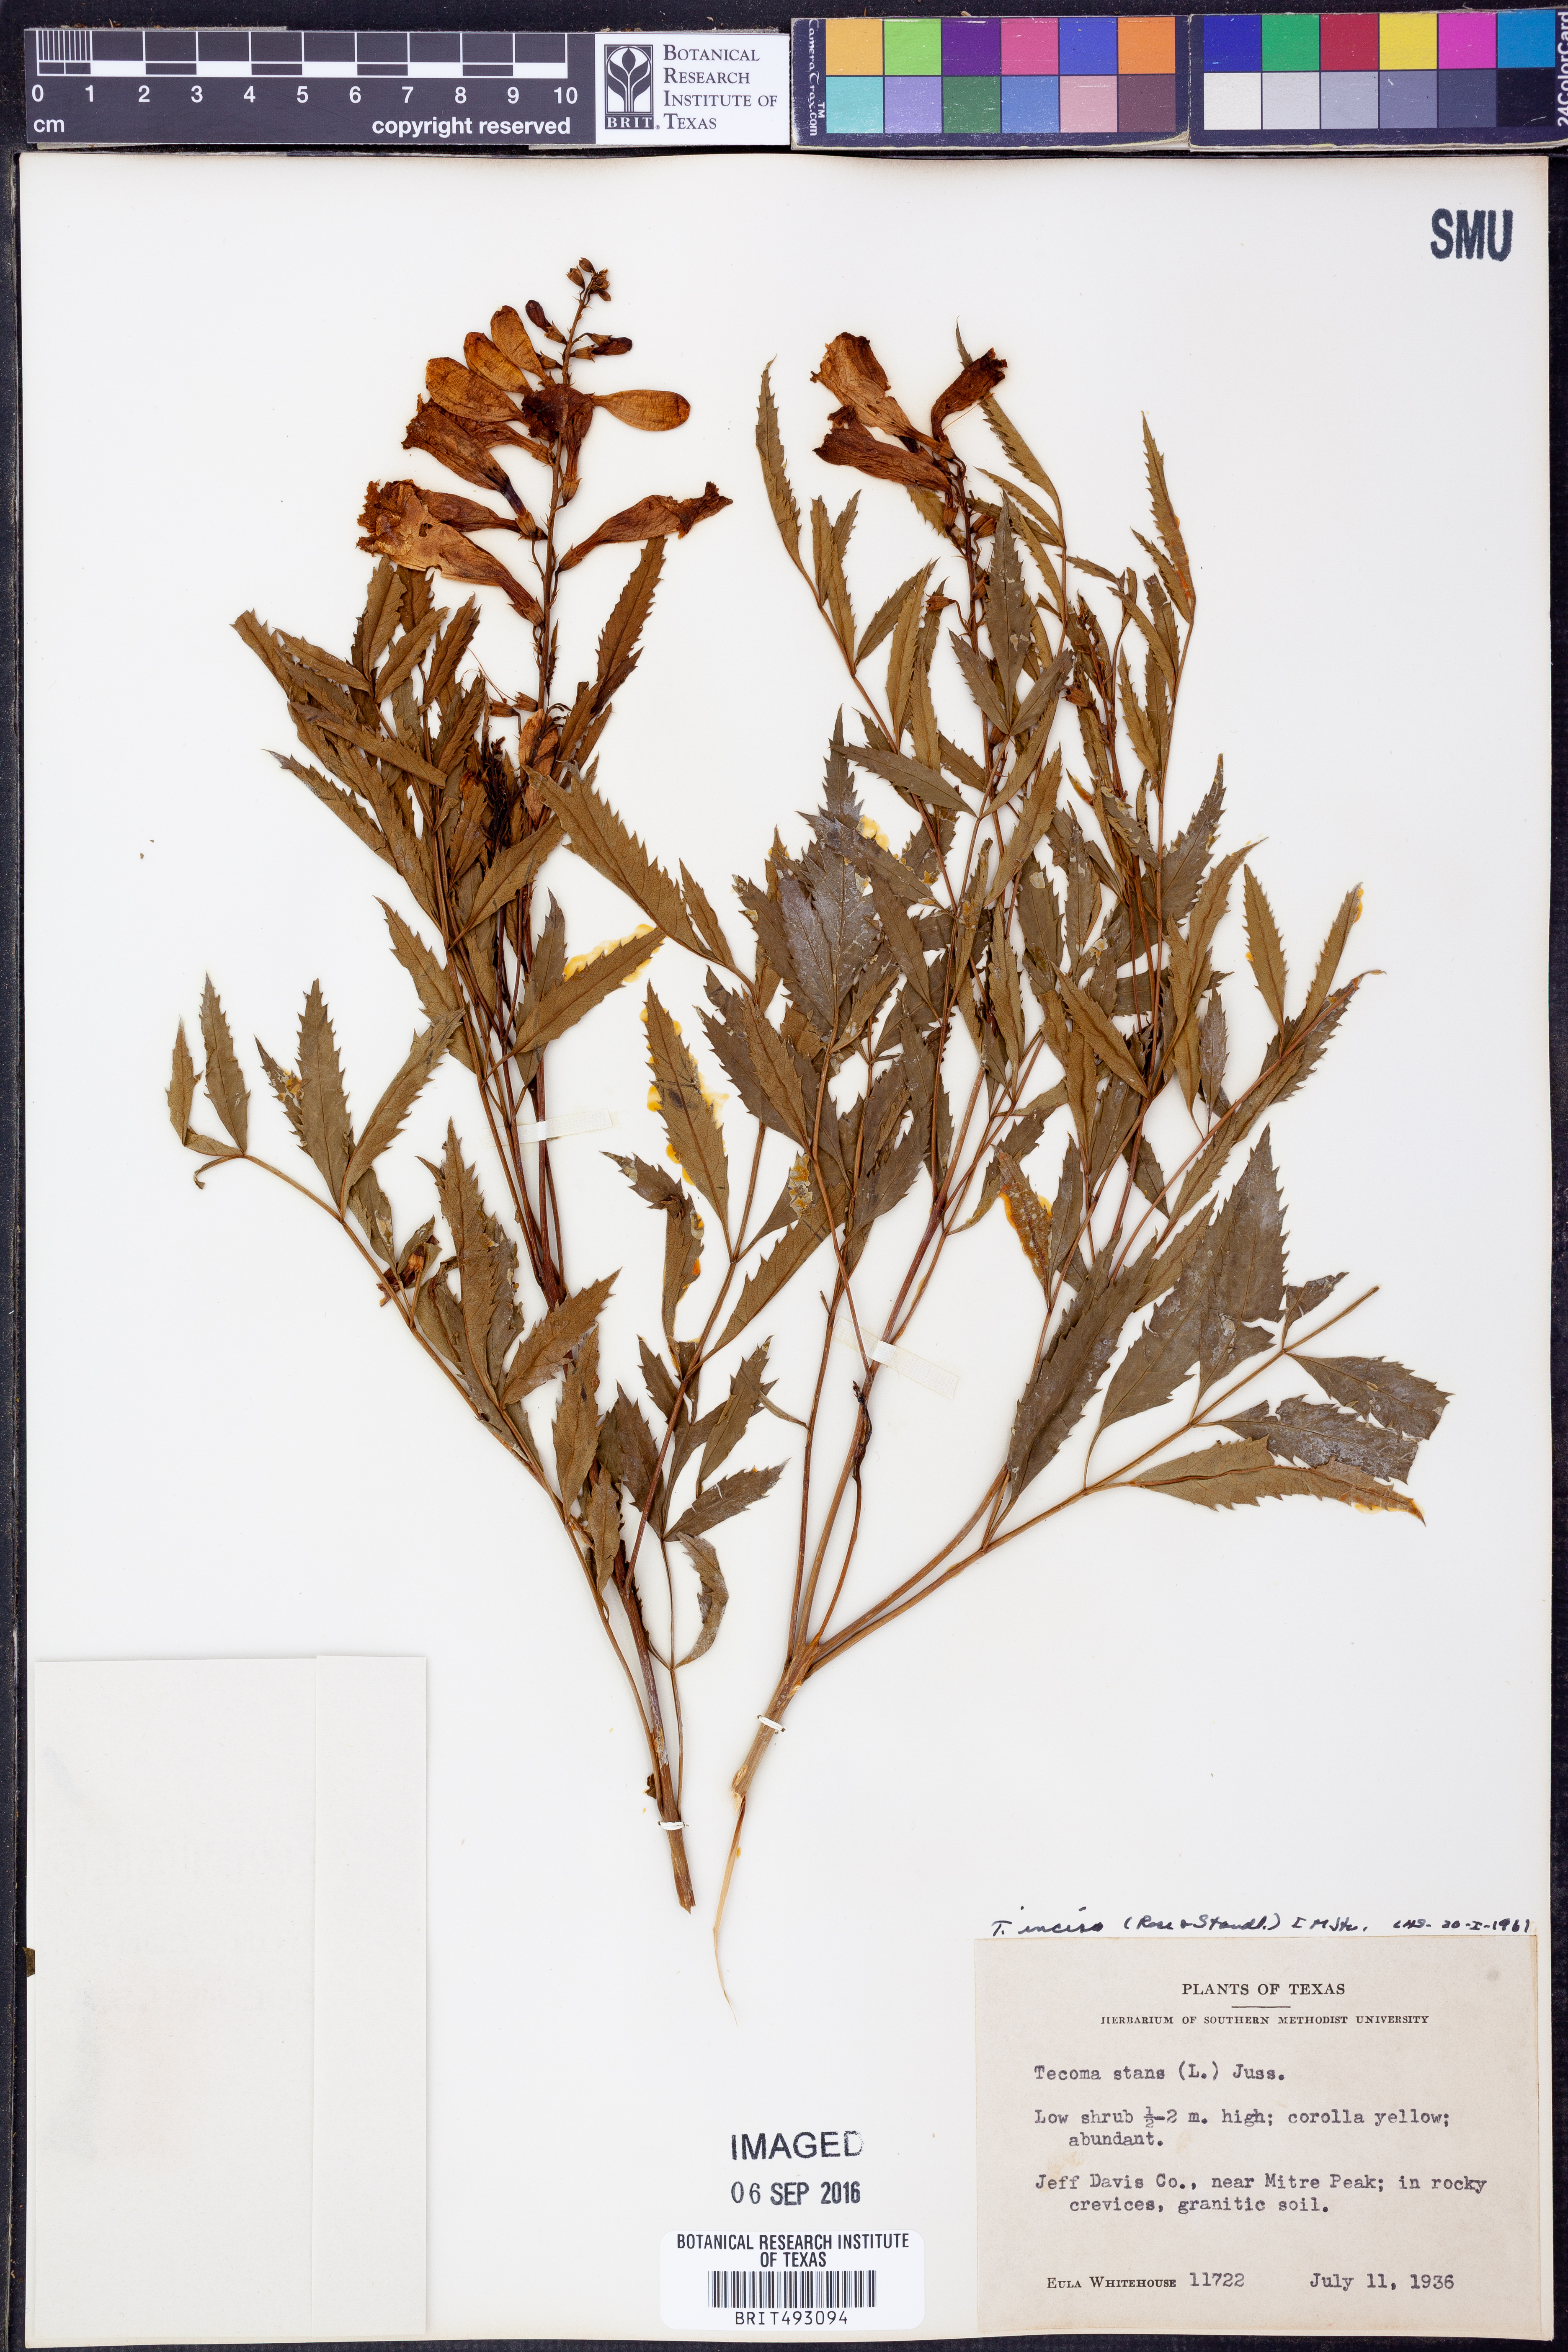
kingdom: Plantae
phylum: Tracheophyta
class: Magnoliopsida
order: Lamiales
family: Bignoniaceae
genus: Tecoma
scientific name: Tecoma stans
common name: Yellow trumpetbush
